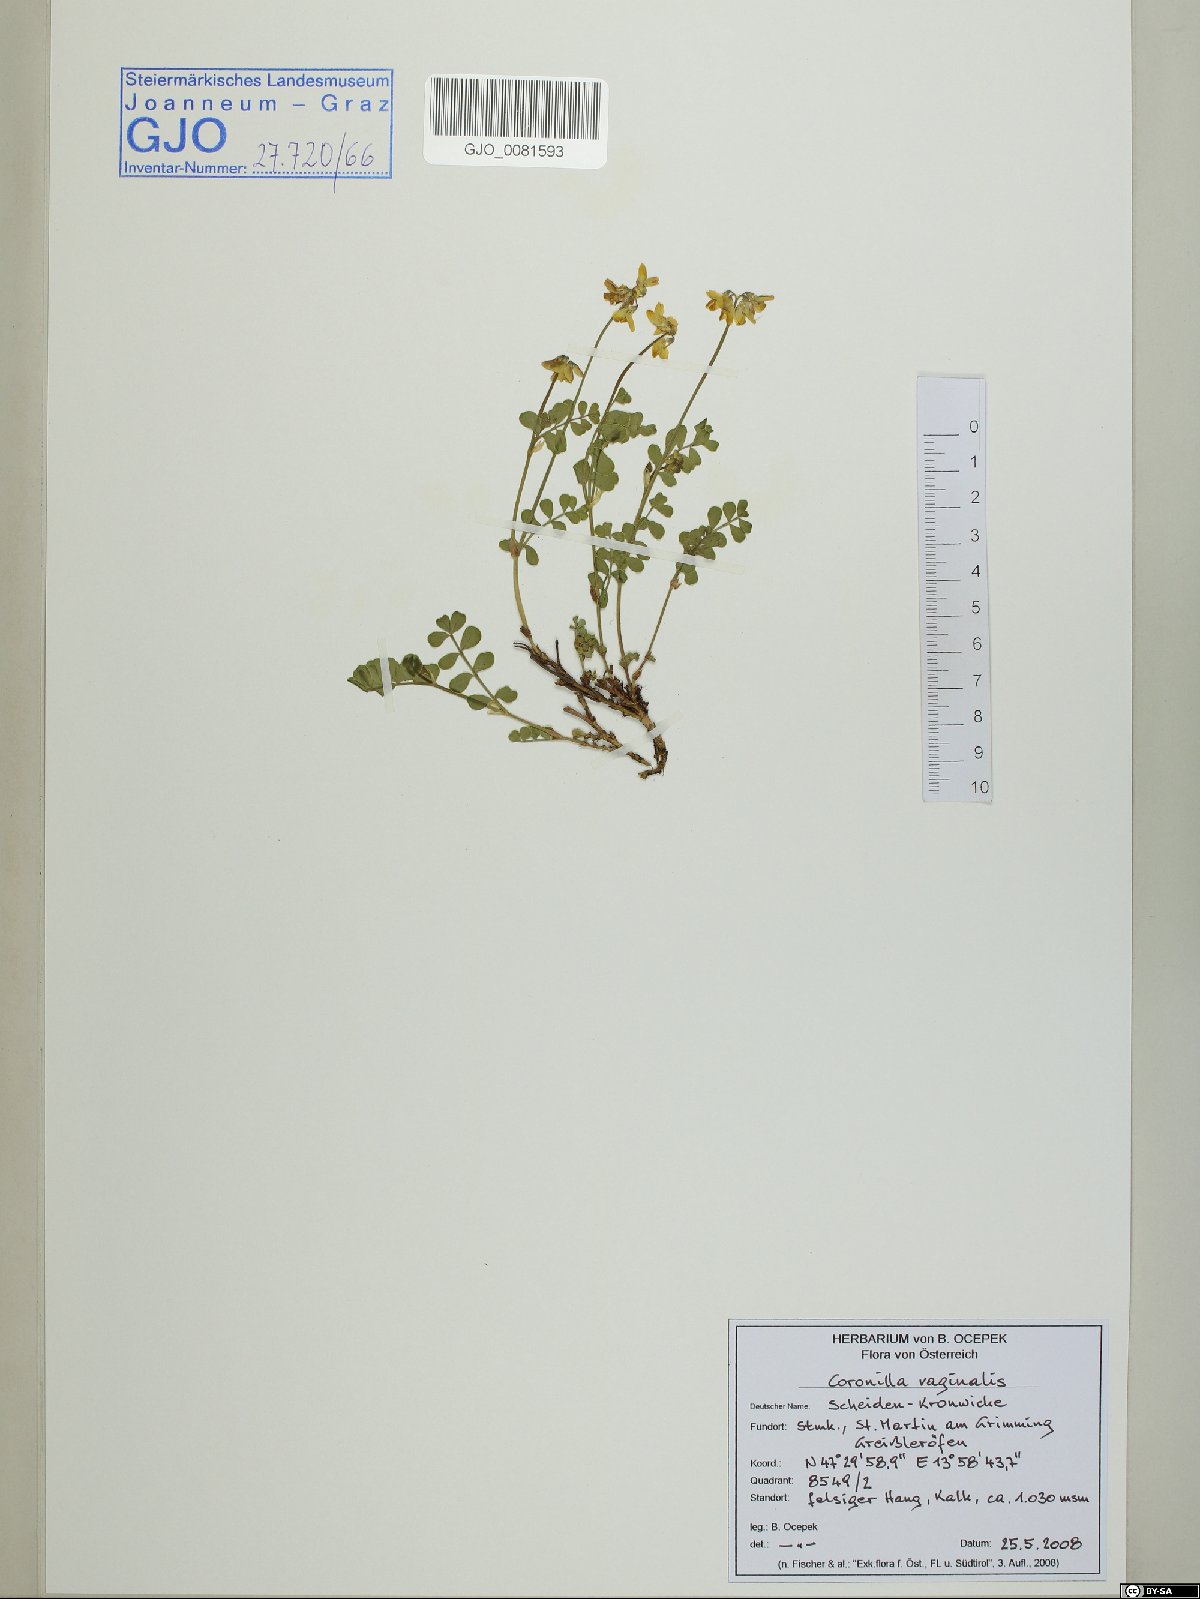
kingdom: Plantae
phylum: Tracheophyta
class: Magnoliopsida
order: Fabales
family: Fabaceae
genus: Coronilla
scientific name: Coronilla vaginalis
